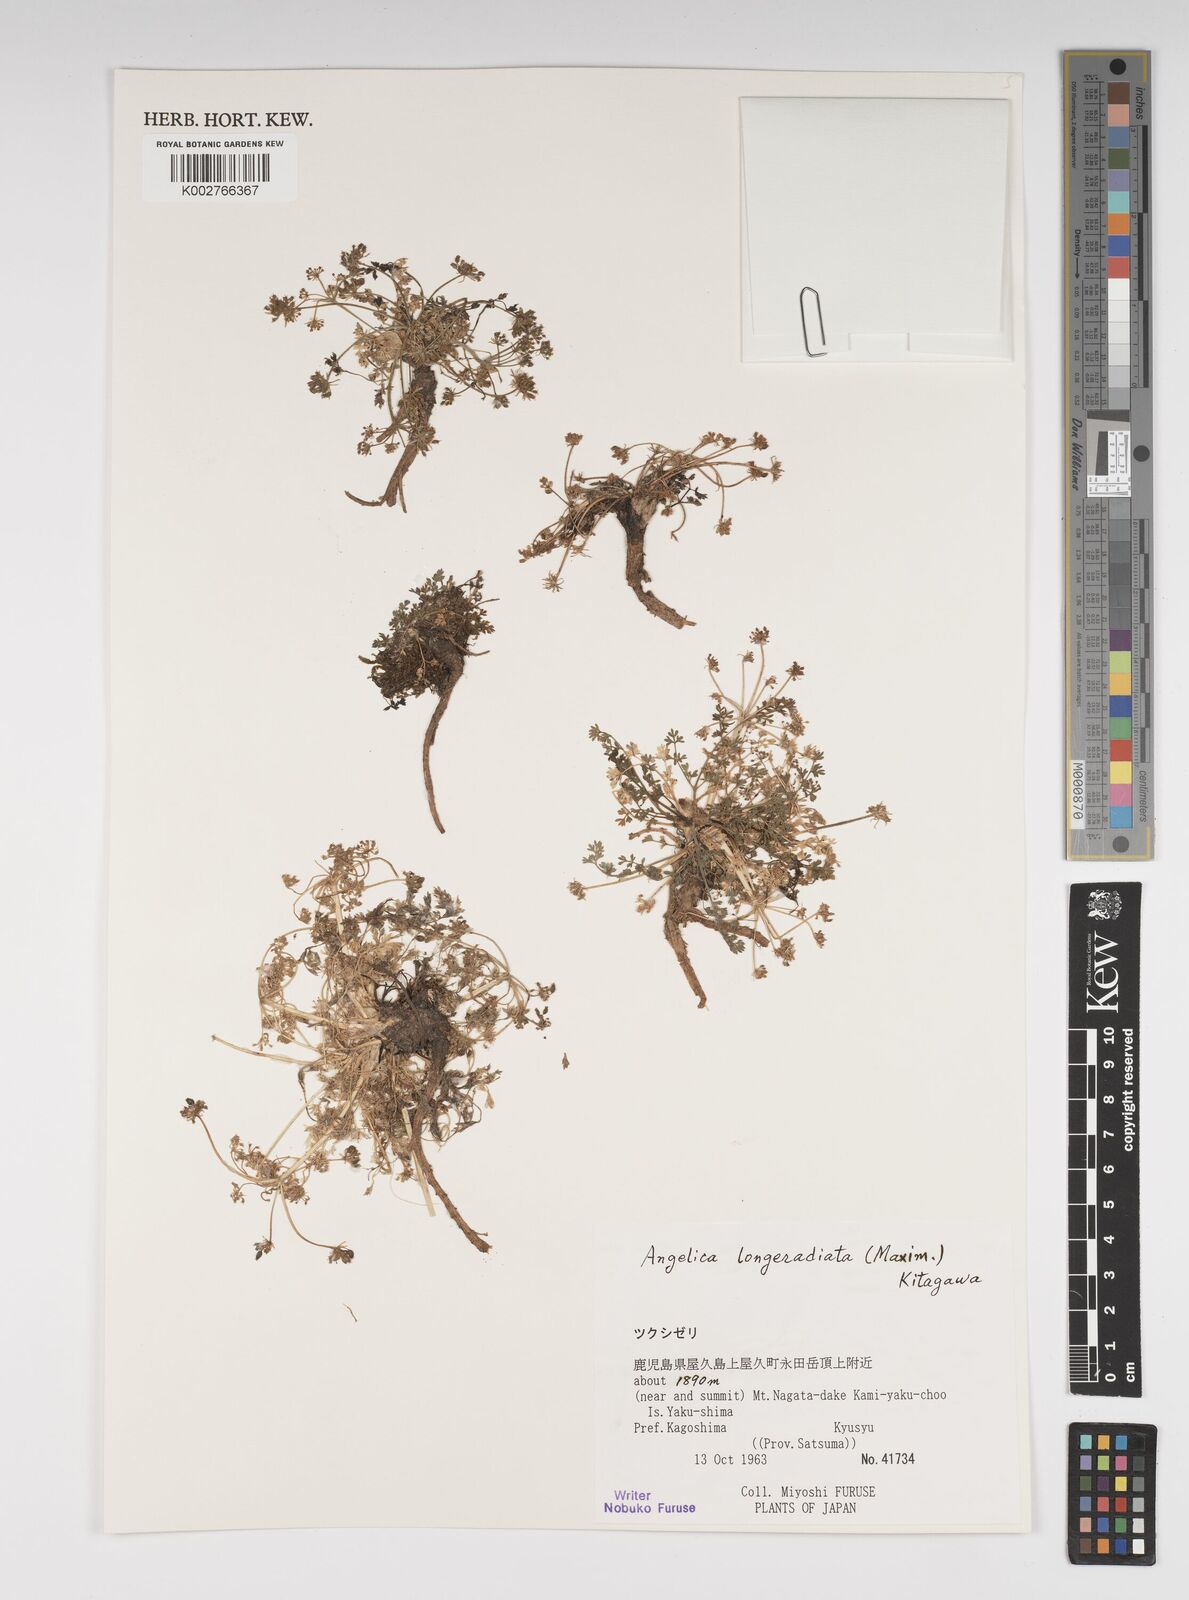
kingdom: Plantae
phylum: Tracheophyta
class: Magnoliopsida
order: Apiales
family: Apiaceae
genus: Angelica
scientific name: Angelica longeradiata
